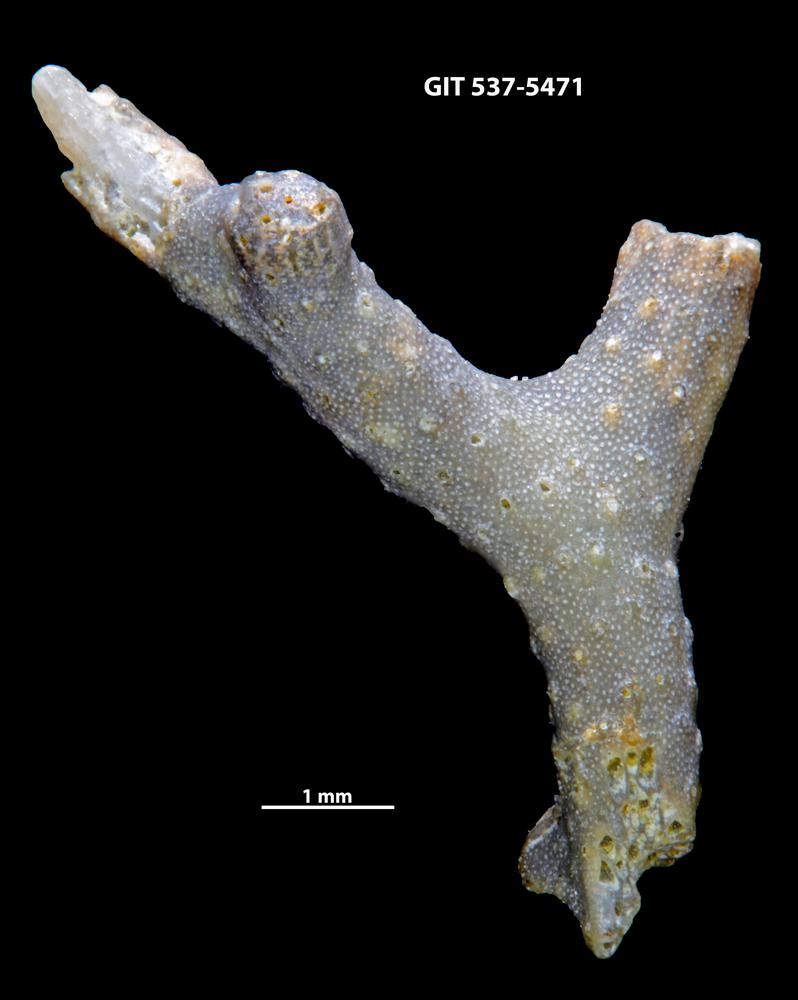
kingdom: Animalia
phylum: Bryozoa
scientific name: Bryozoa
